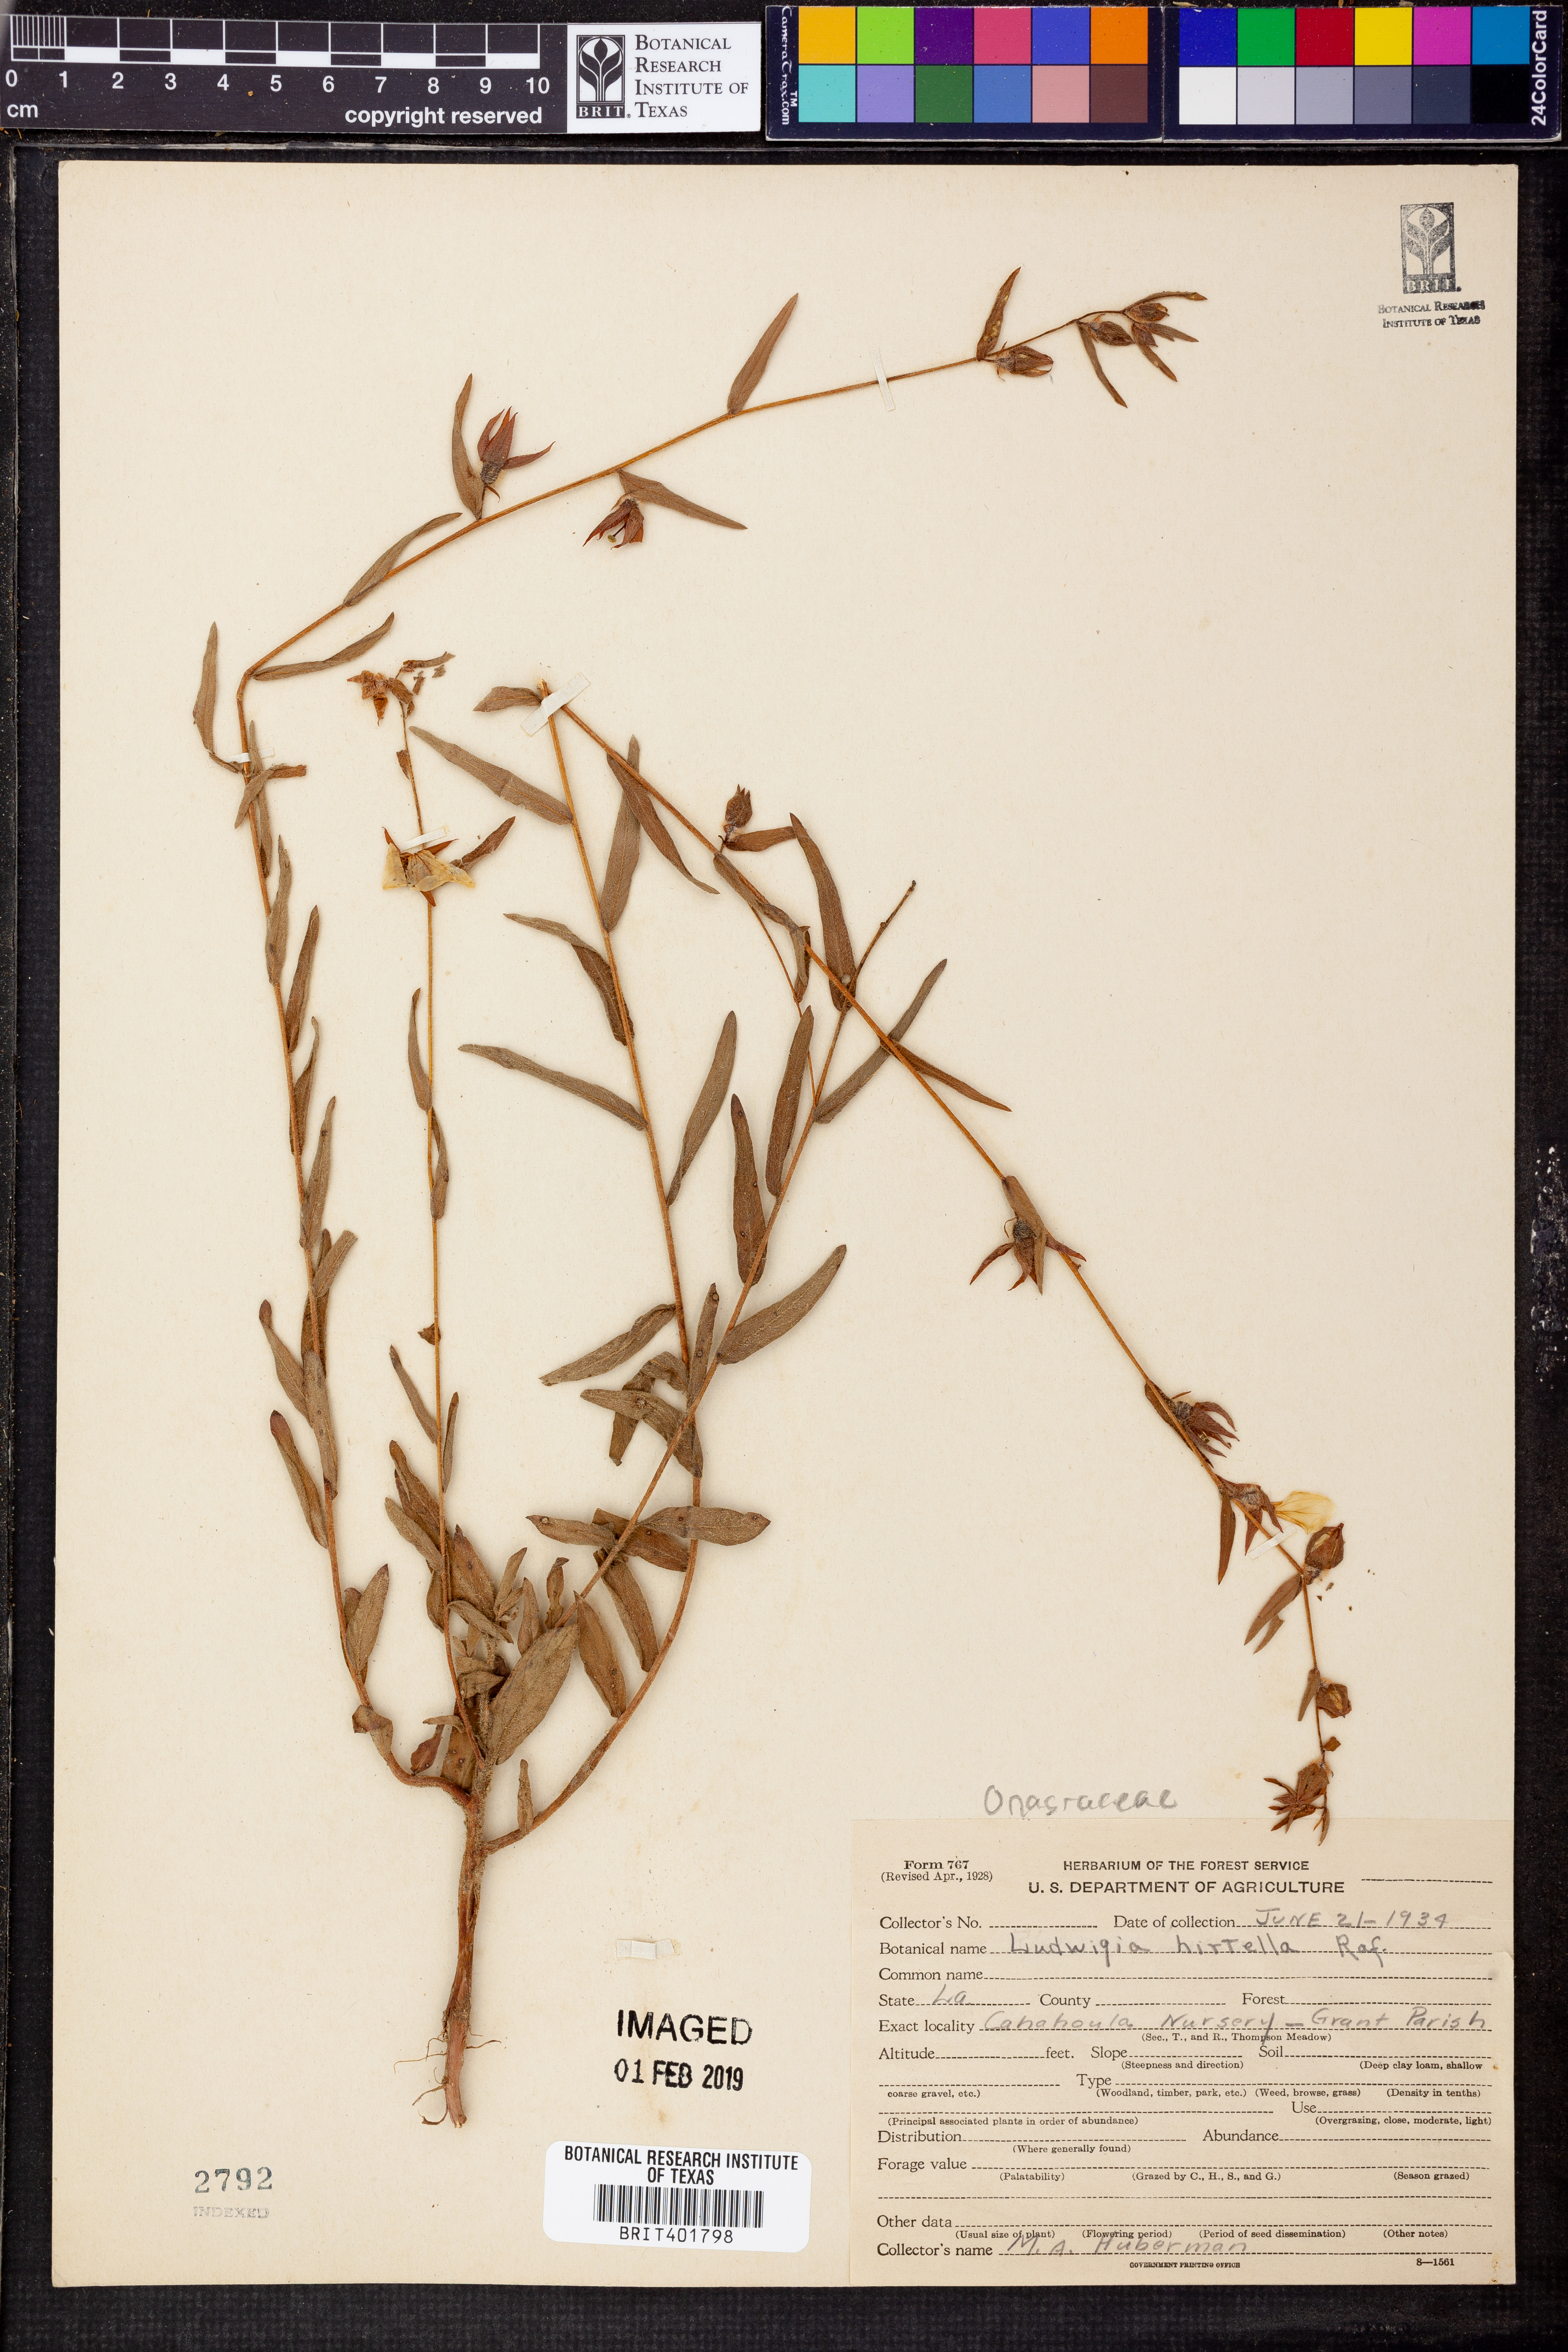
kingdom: Plantae
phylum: Tracheophyta
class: Magnoliopsida
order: Myrtales
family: Onagraceae
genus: Ludwigia
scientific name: Ludwigia hirtella
